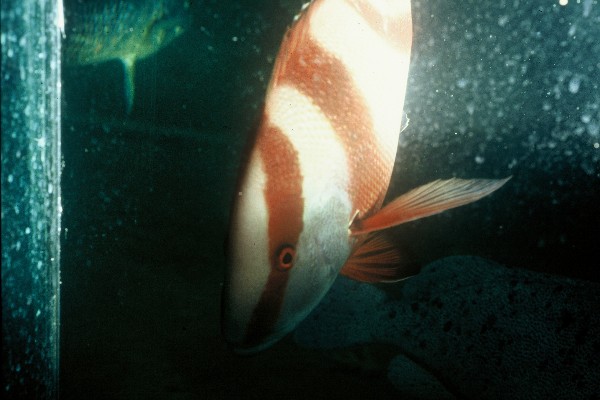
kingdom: Animalia
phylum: Chordata
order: Perciformes
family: Lutjanidae
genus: Lutjanus
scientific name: Lutjanus sebae
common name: Emperor red snapper
